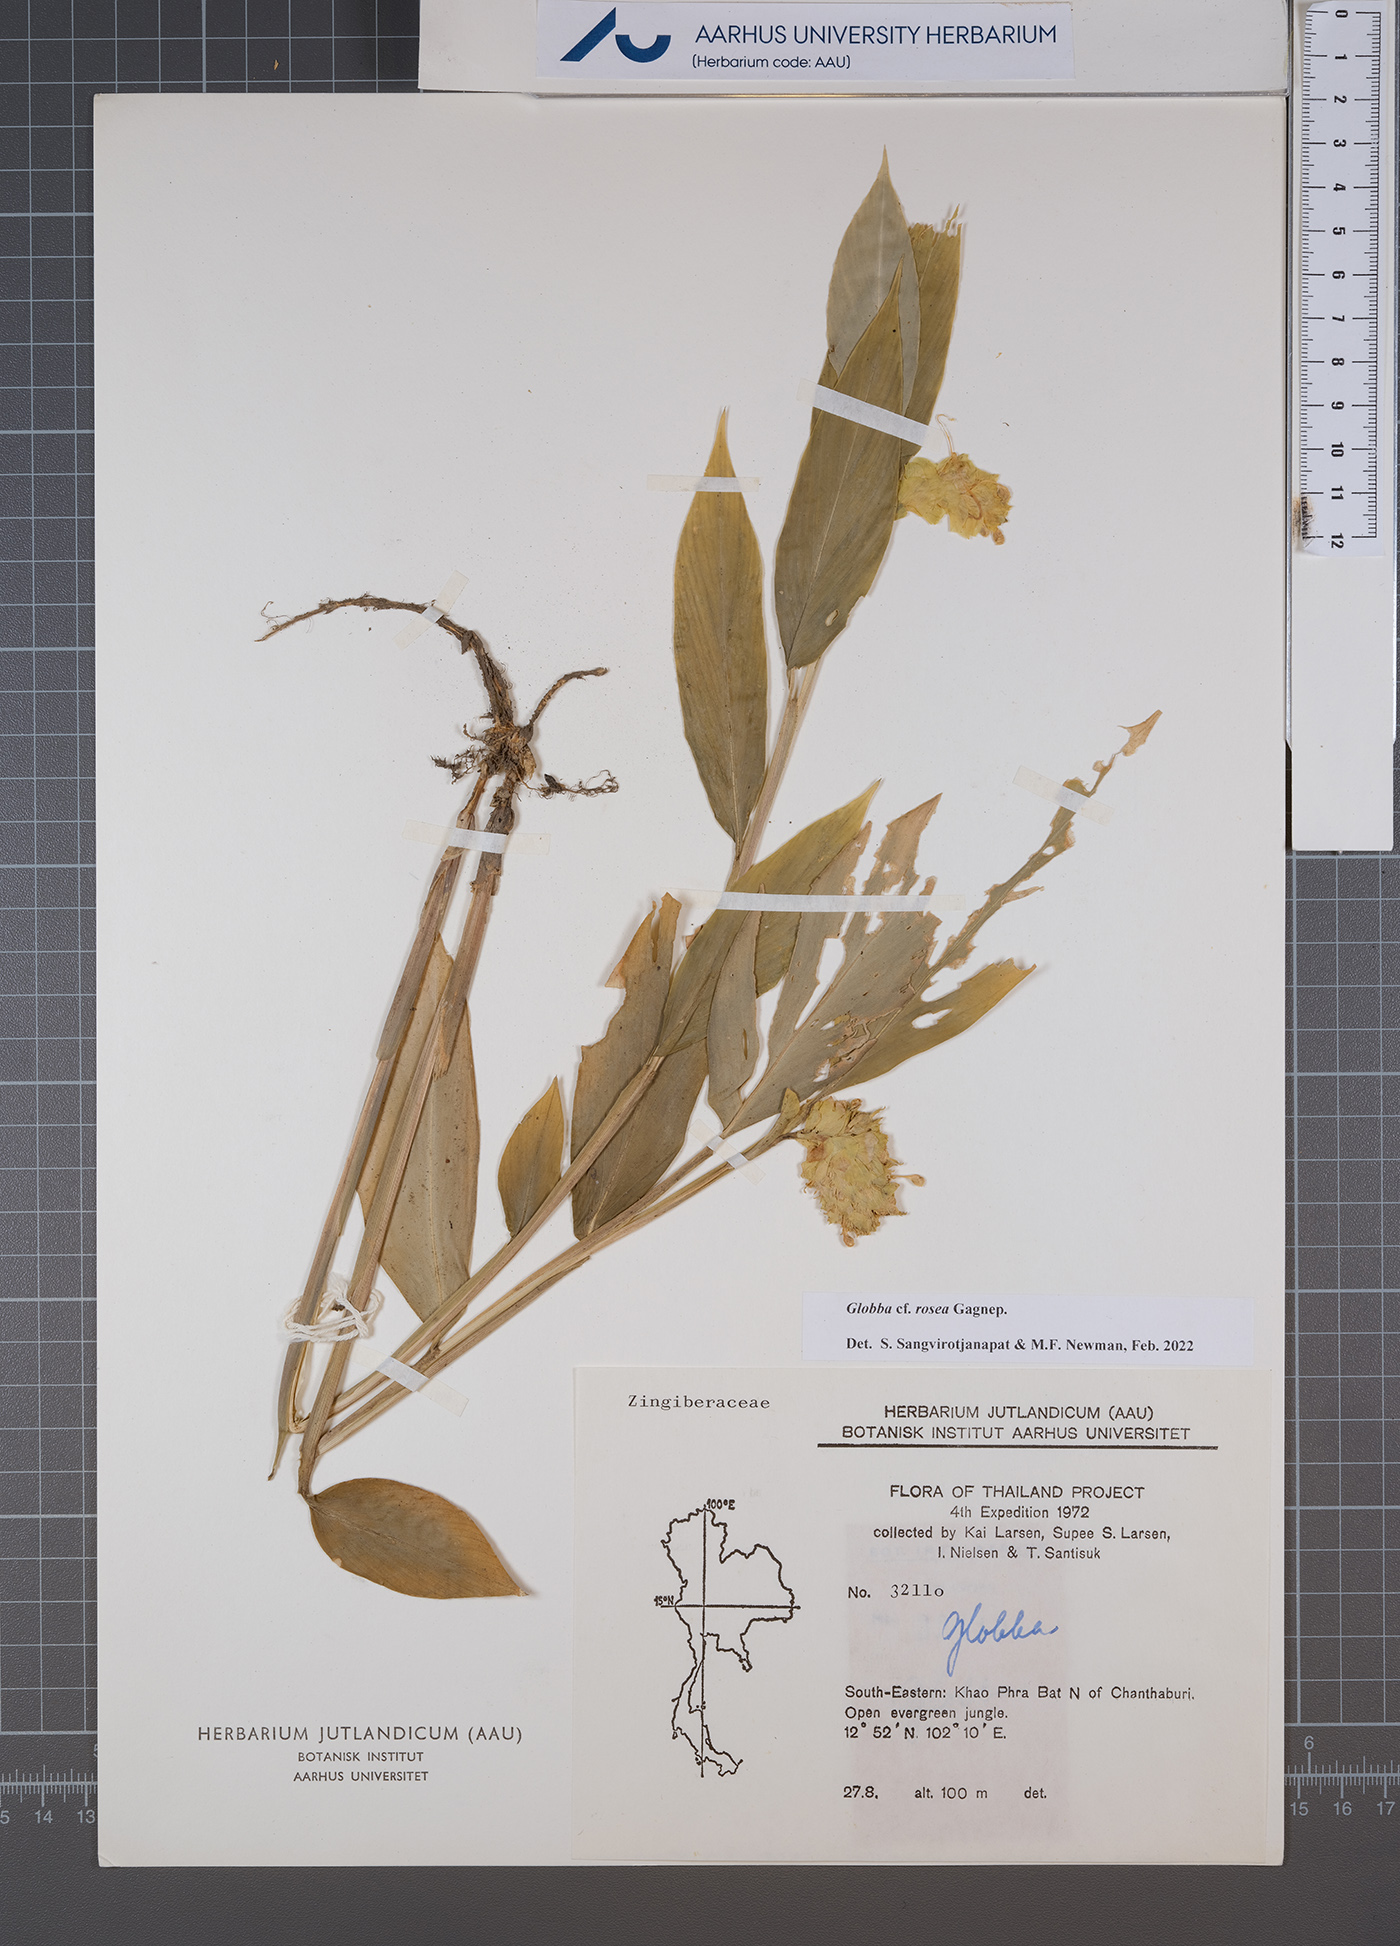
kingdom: Plantae
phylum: Tracheophyta
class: Liliopsida
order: Zingiberales
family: Zingiberaceae
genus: Globba
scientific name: Globba rosea
